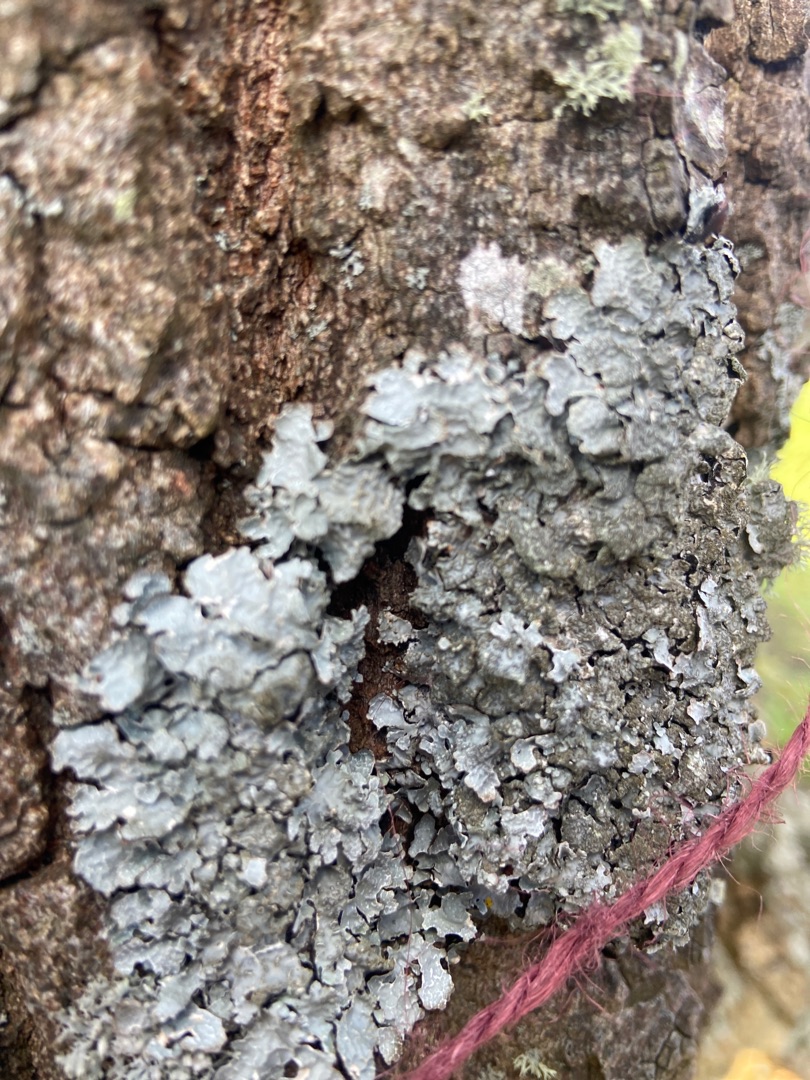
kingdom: Fungi
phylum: Ascomycota
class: Lecanoromycetes
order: Lecanorales
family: Parmeliaceae
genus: Parmelia
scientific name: Parmelia sulcata
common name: Rynket skållav
